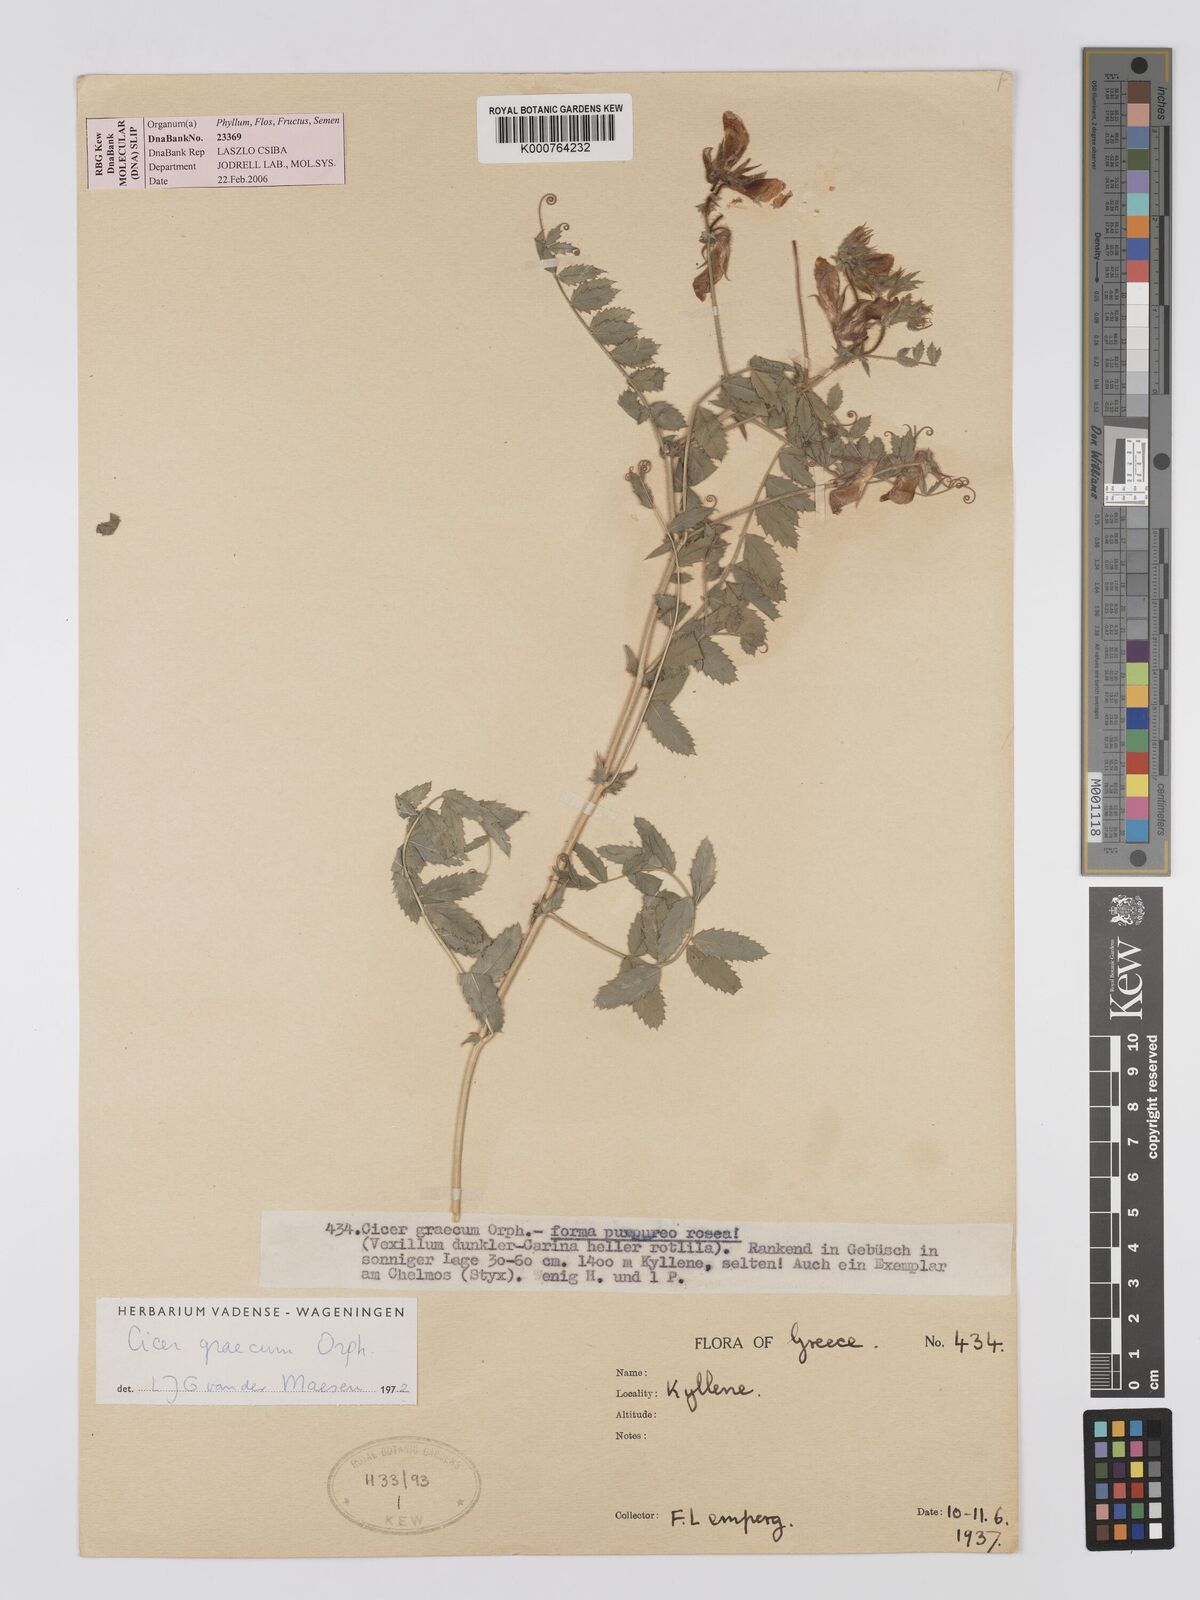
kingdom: Plantae
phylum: Tracheophyta
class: Magnoliopsida
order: Fabales
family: Fabaceae
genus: Cicer
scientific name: Cicer graecum
